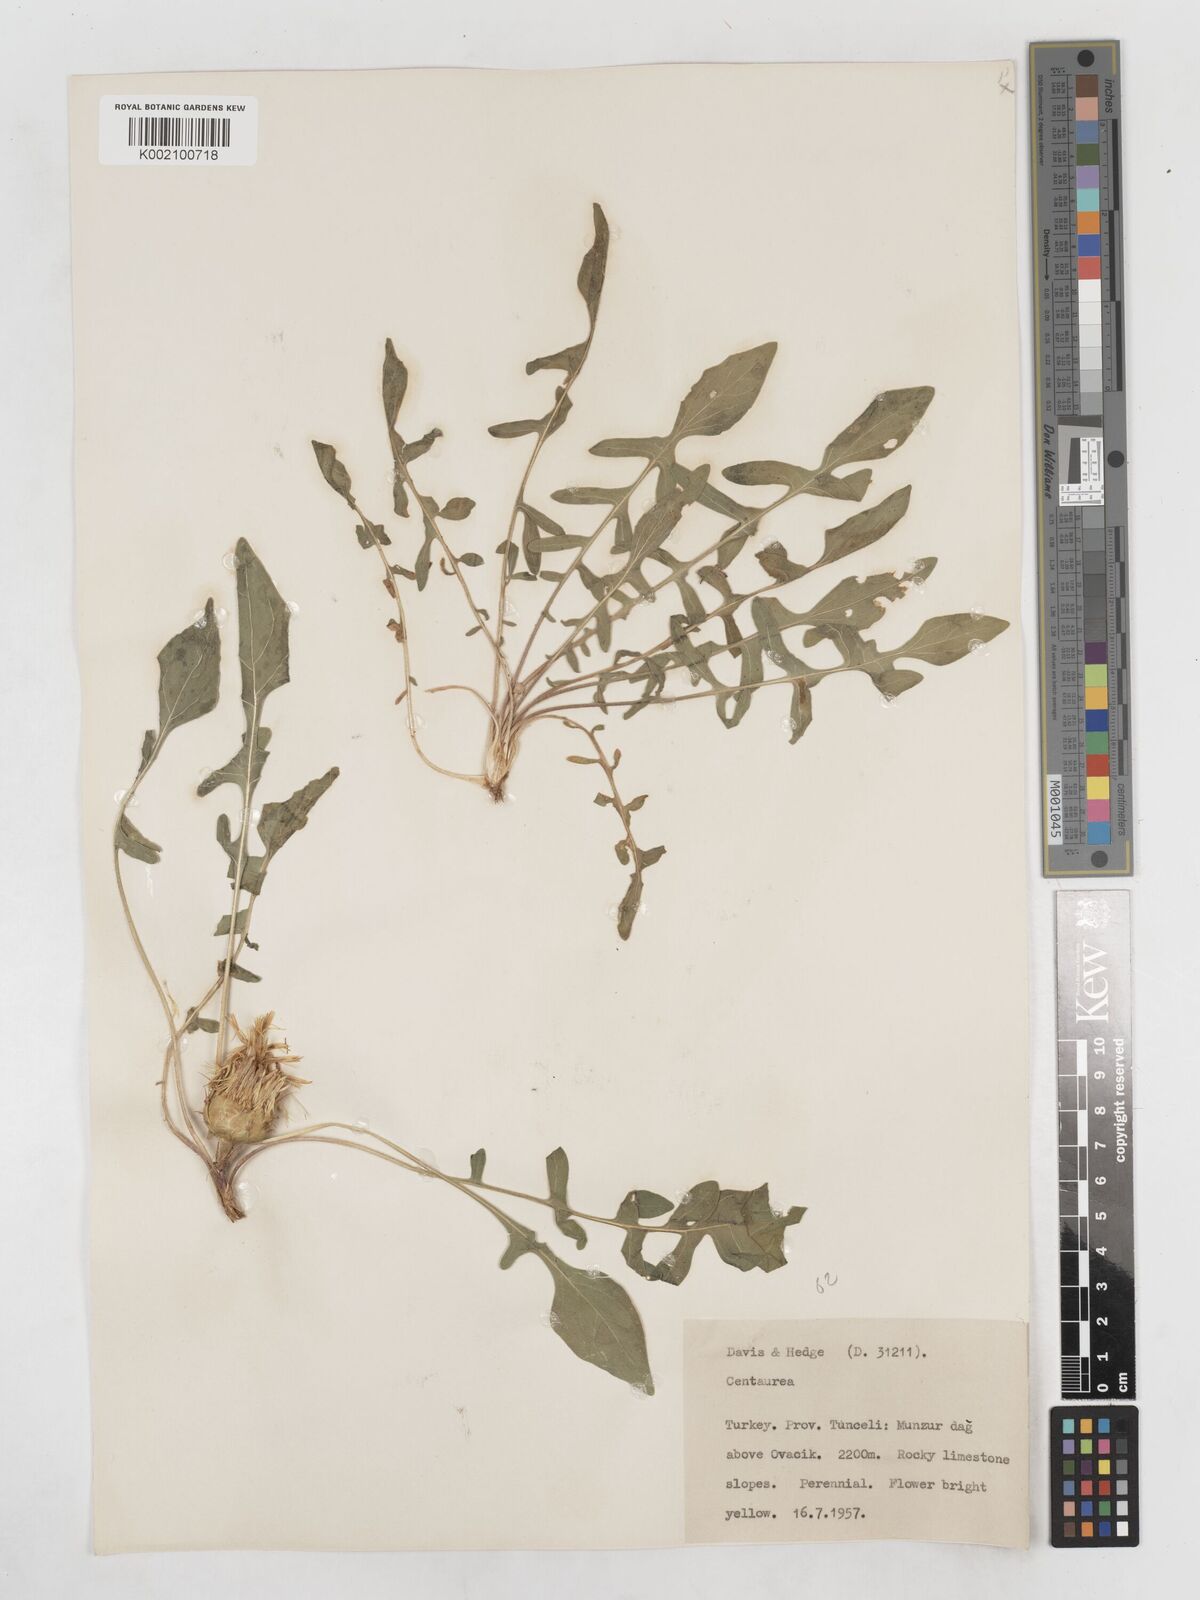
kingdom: Plantae
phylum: Tracheophyta
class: Magnoliopsida
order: Asterales
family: Asteraceae
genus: Centaurea
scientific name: Centaurea rhizantha
